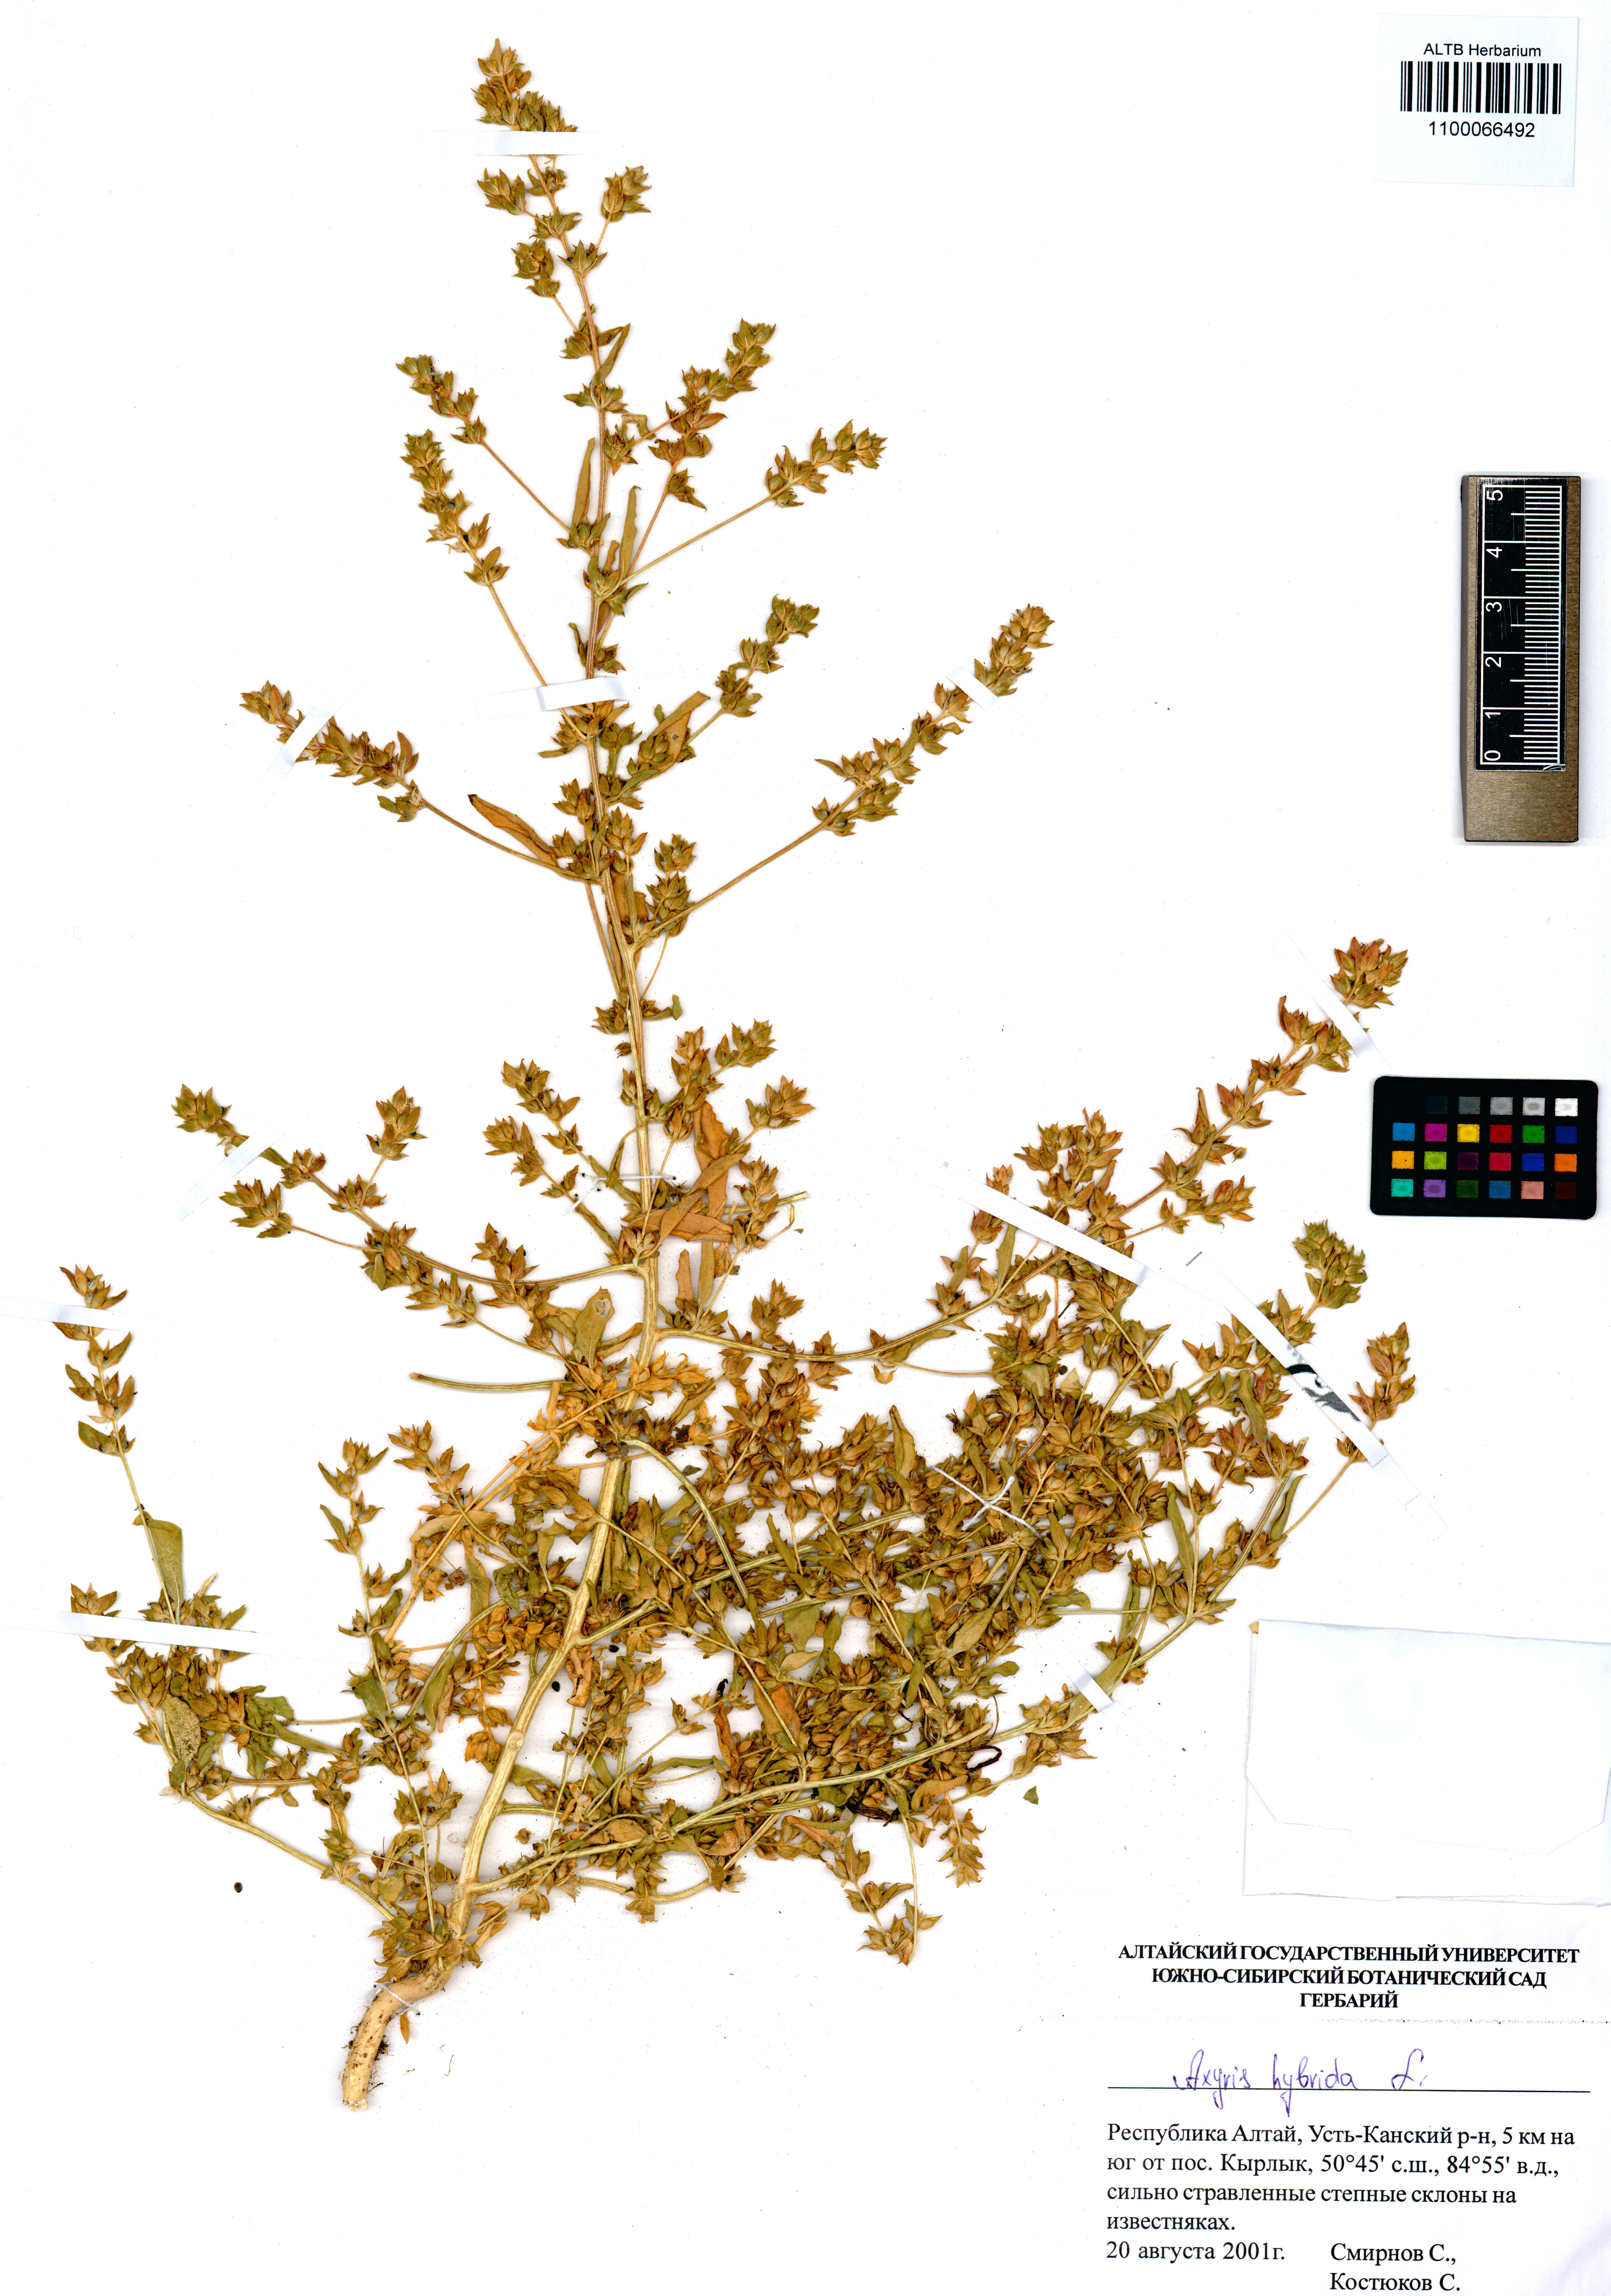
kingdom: Plantae
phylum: Tracheophyta
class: Magnoliopsida
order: Caryophyllales
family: Amaranthaceae
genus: Axyris
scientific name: Axyris hybrida
